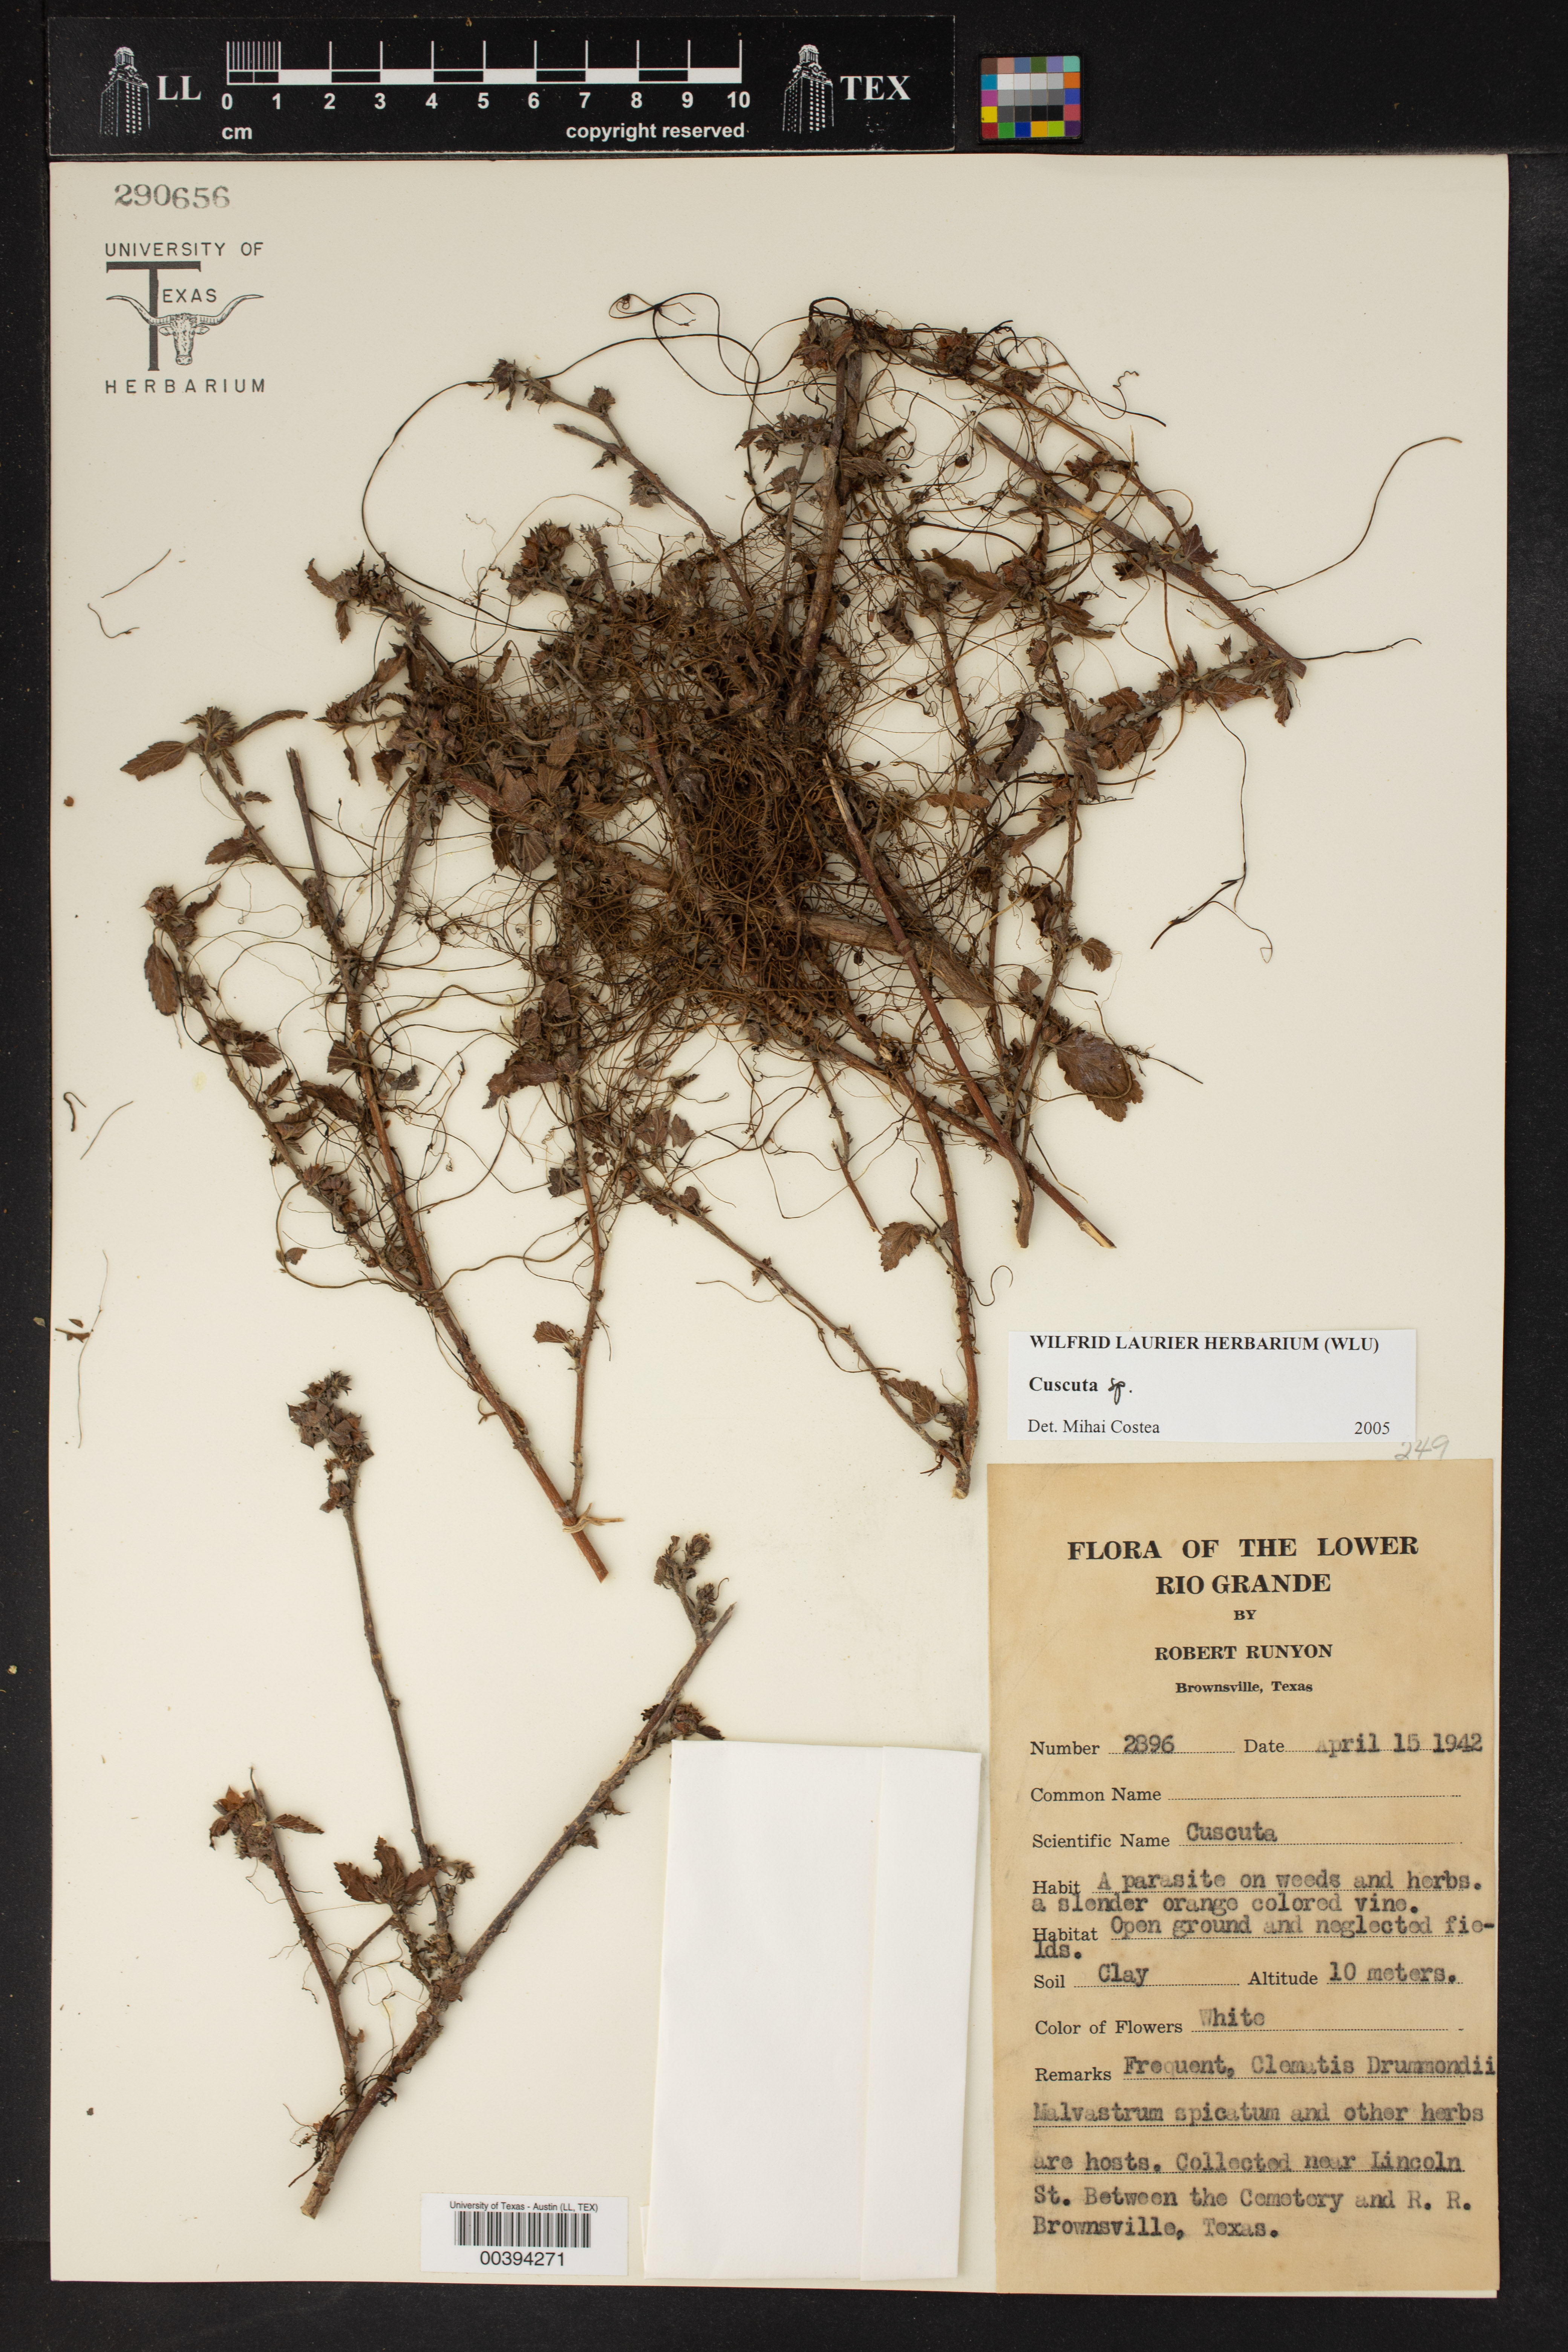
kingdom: Plantae
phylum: Tracheophyta
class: Magnoliopsida
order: Solanales
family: Convolvulaceae
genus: Cuscuta
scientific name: Cuscuta
